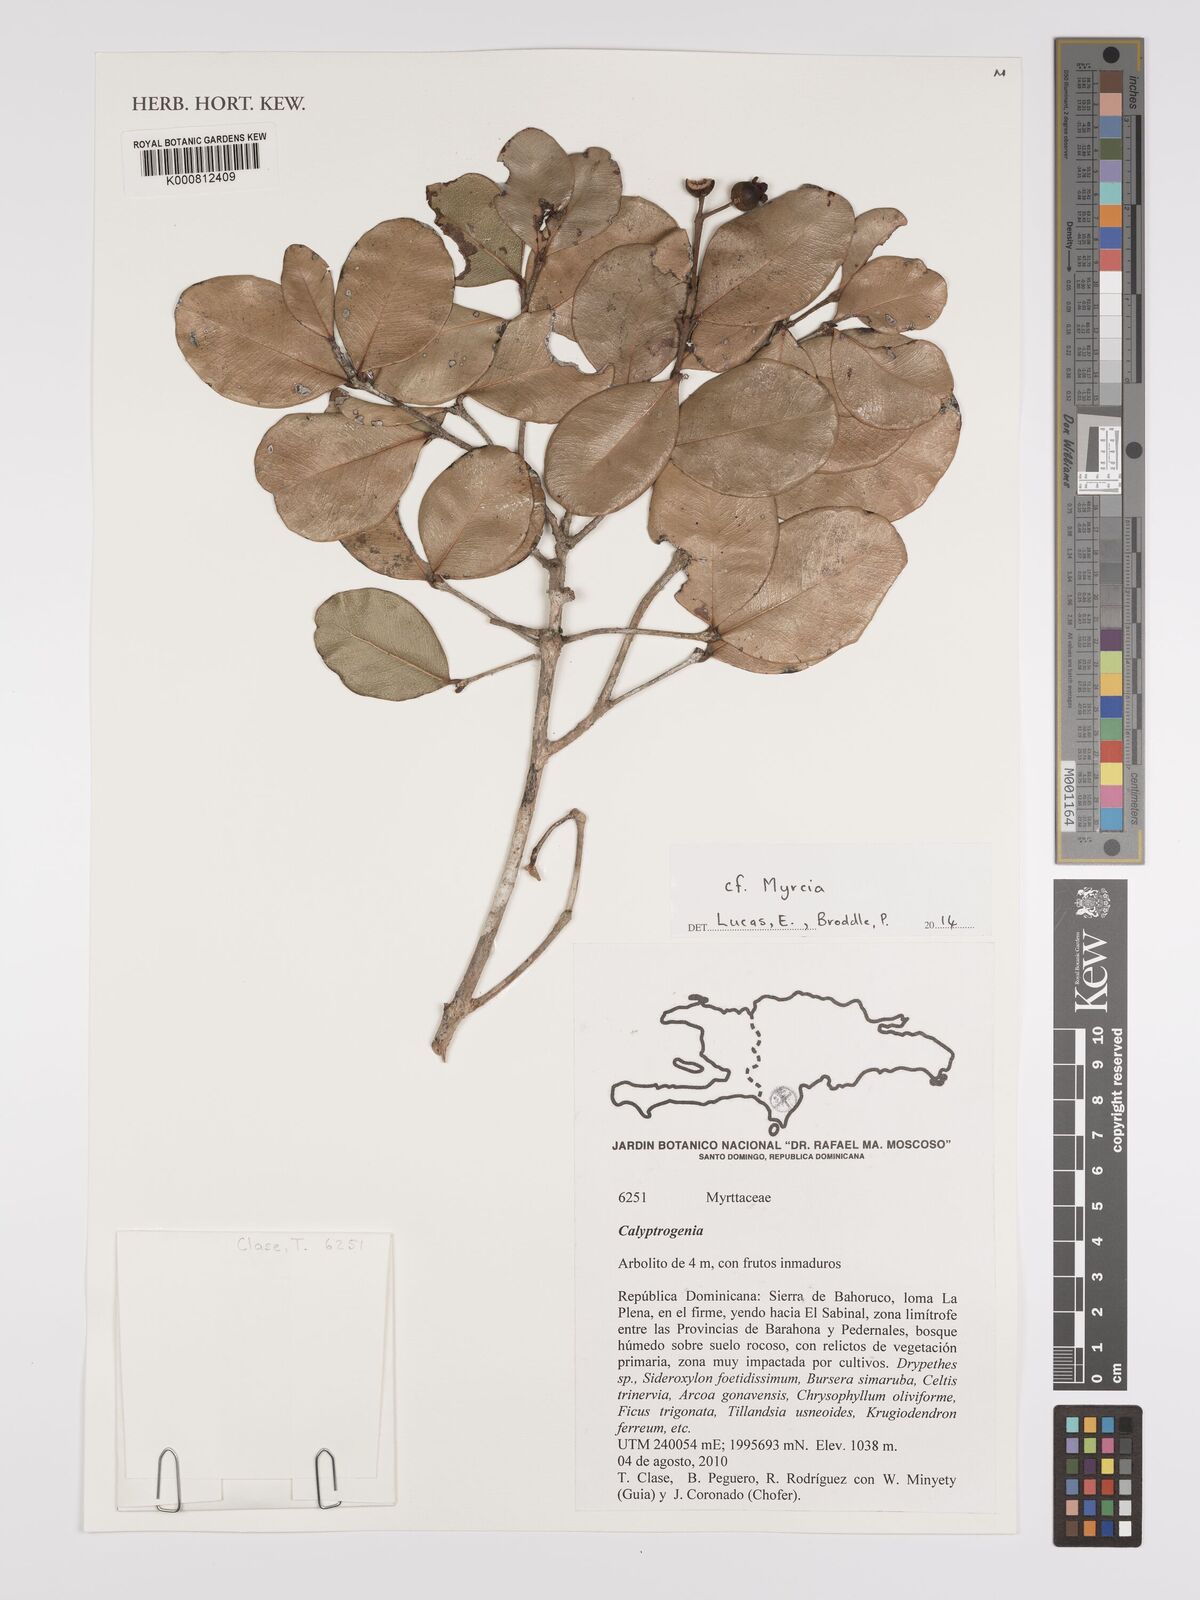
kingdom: Plantae
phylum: Tracheophyta
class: Magnoliopsida
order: Myrtales
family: Myrtaceae
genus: Myrcia
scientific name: Myrcia
